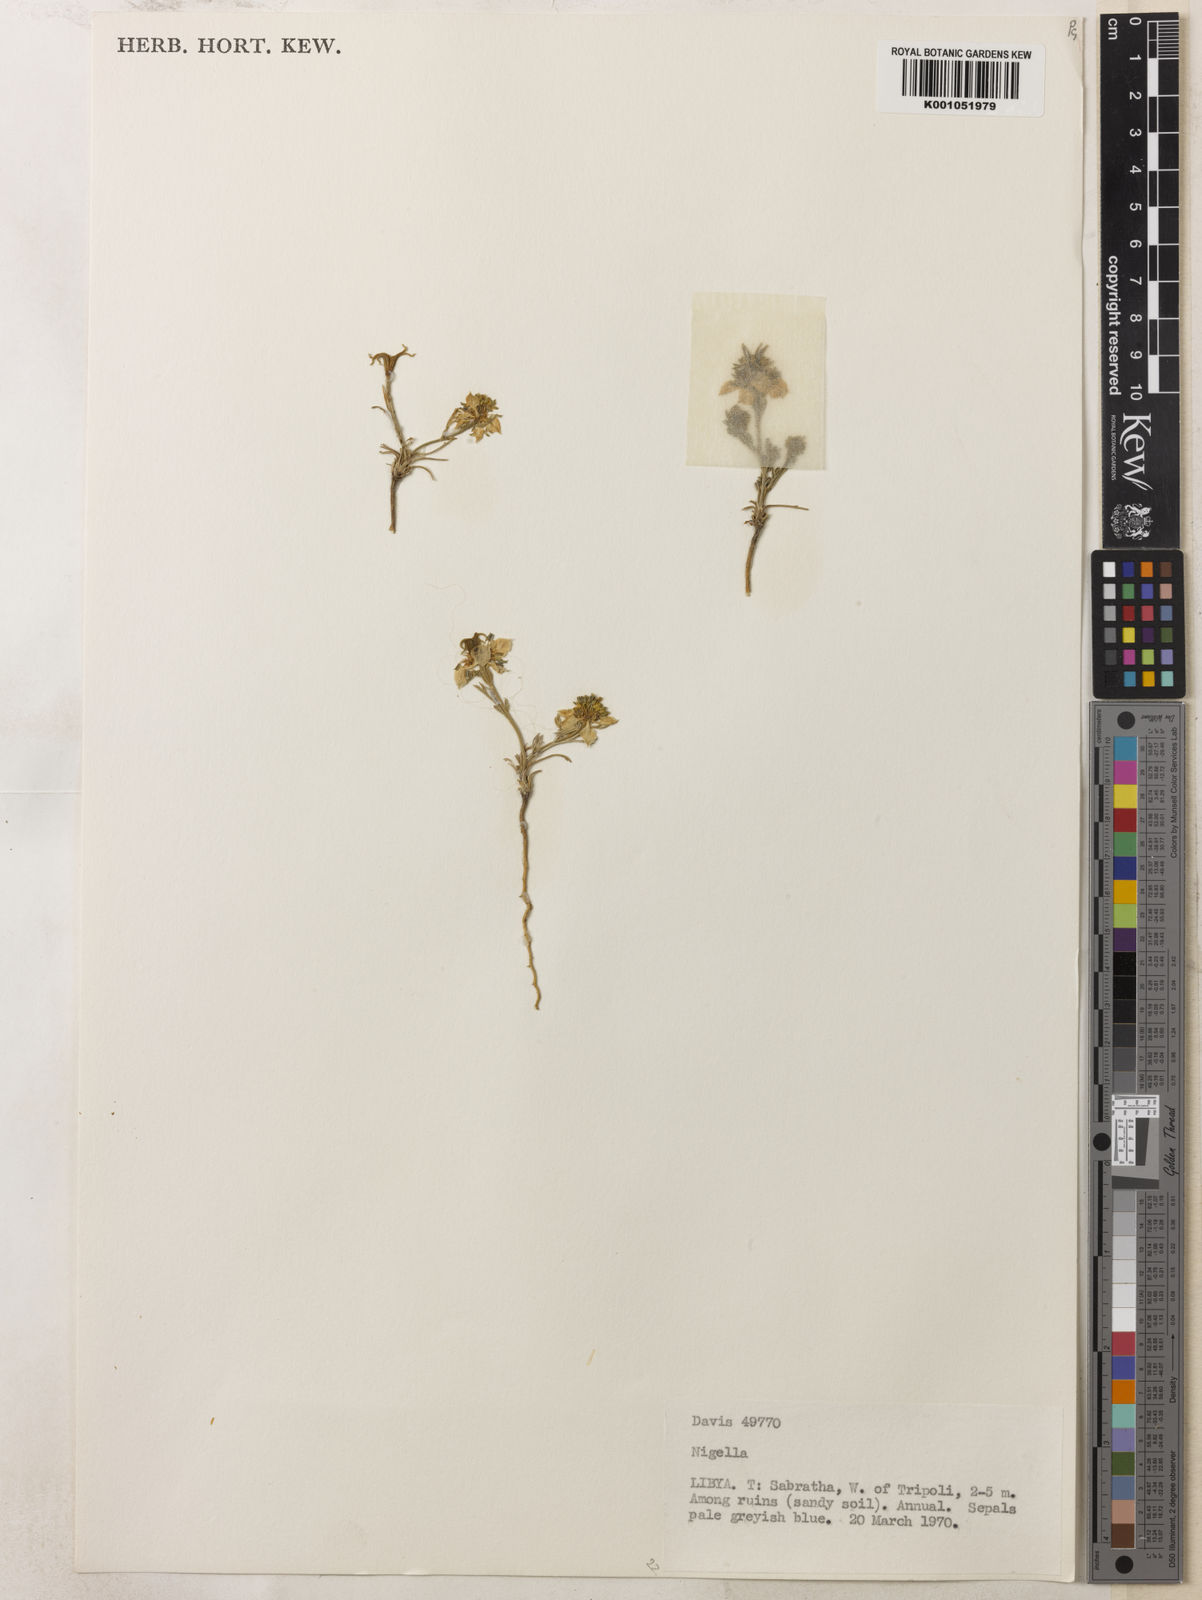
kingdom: Plantae
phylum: Tracheophyta
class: Magnoliopsida
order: Ranunculales
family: Ranunculaceae
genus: Nigella
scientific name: Nigella
